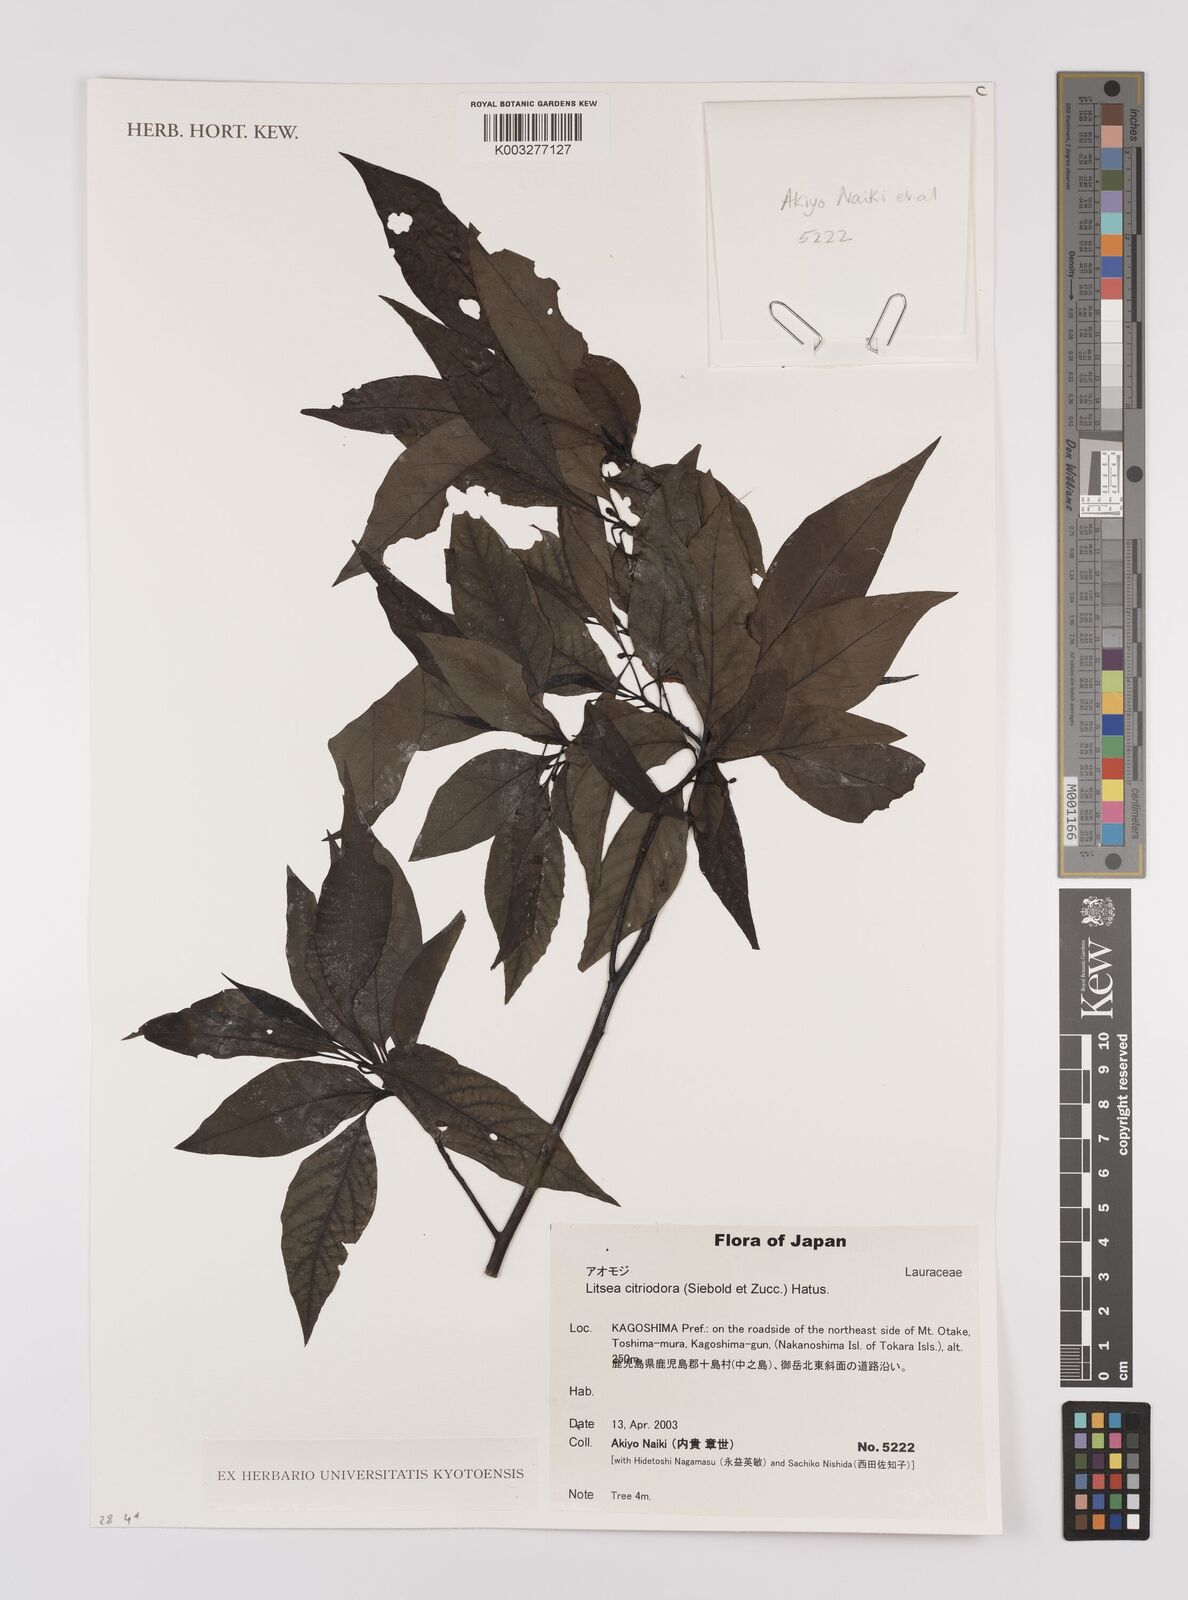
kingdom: Plantae
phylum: Tracheophyta
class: Magnoliopsida
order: Laurales
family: Lauraceae
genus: Lindera
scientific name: Lindera citriodora
